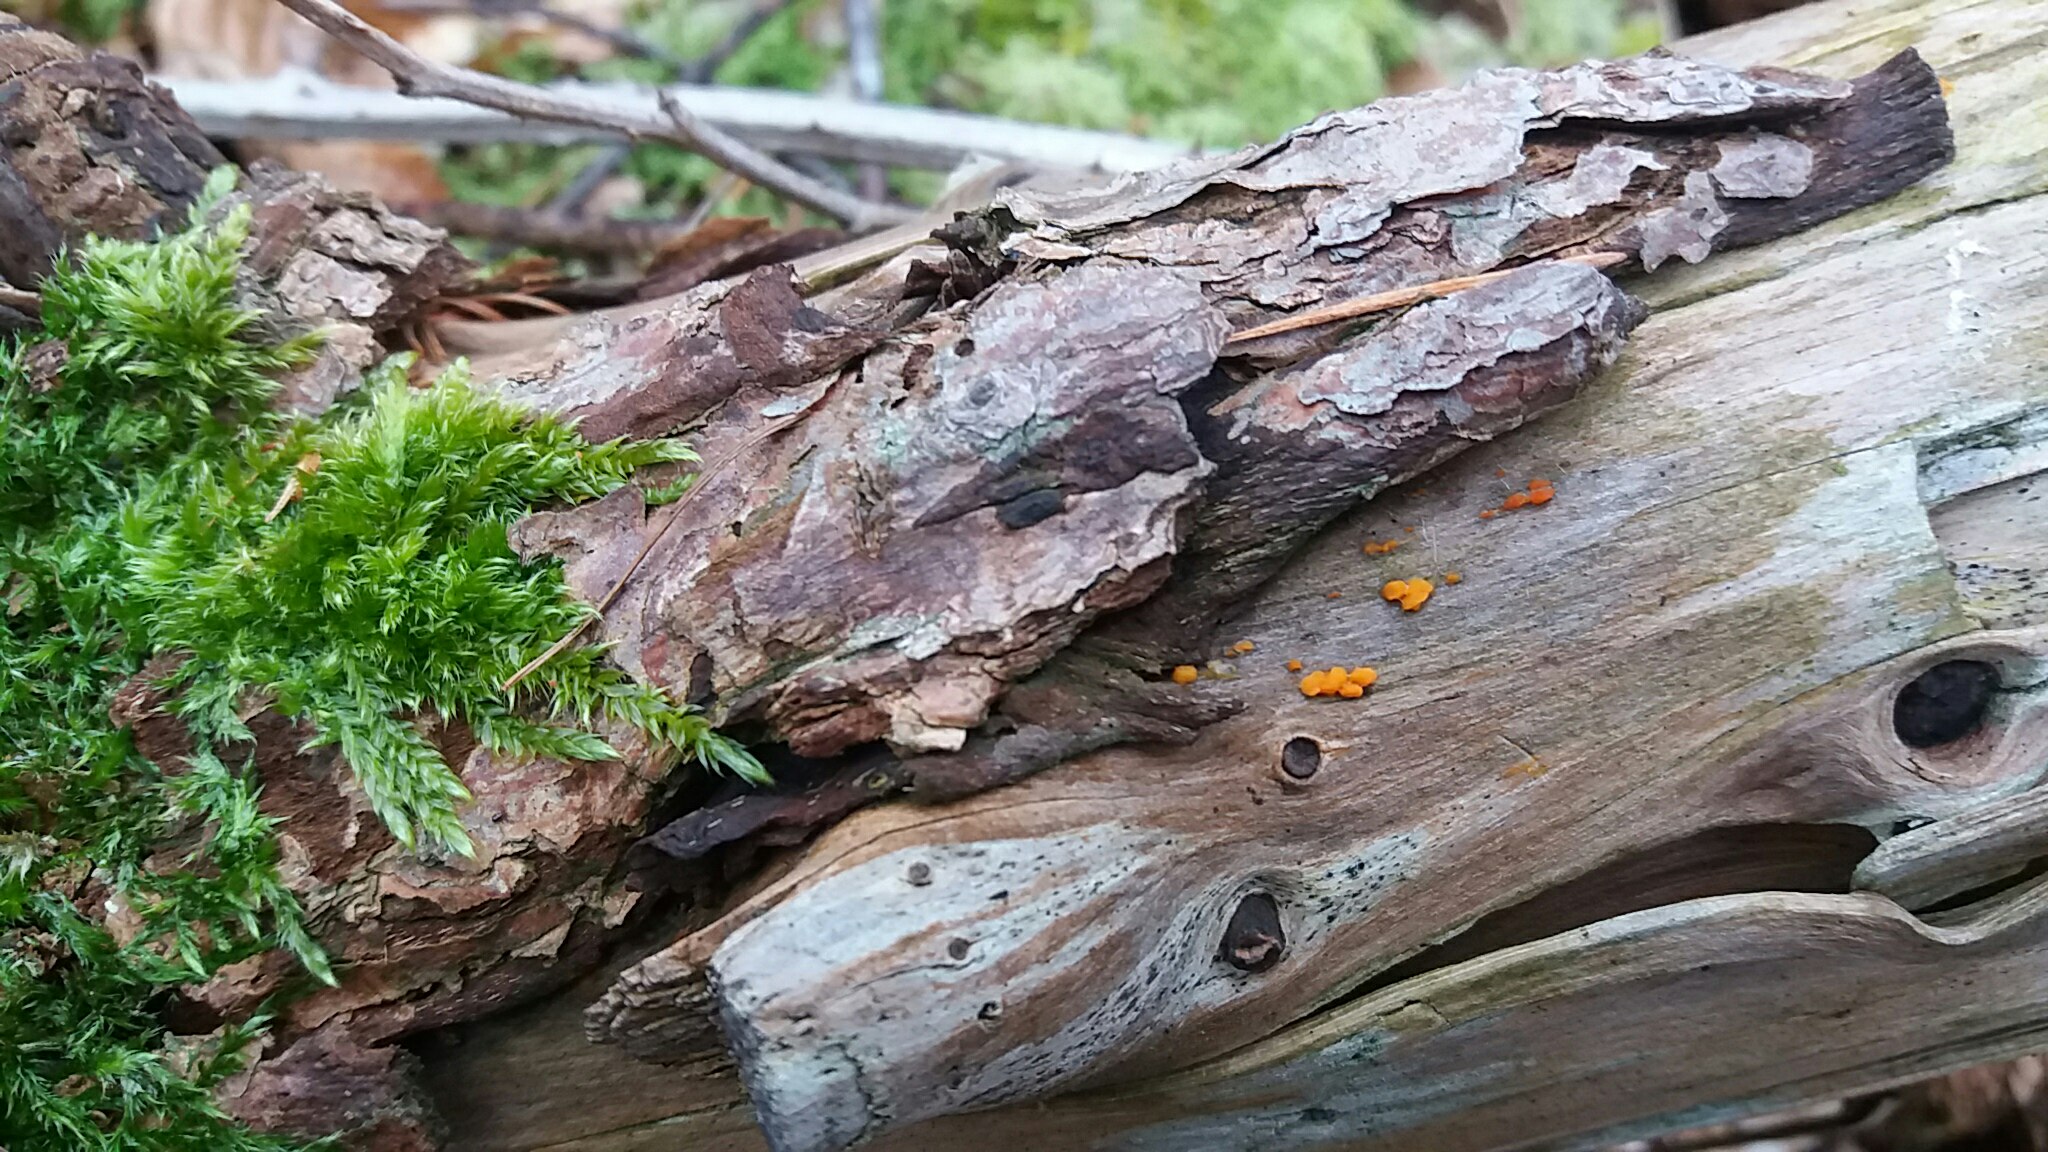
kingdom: Fungi
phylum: Basidiomycota
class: Dacrymycetes
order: Dacrymycetales
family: Dacrymycetaceae
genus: Dacrymyces
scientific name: Dacrymyces stillatus
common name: almindelig tåresvamp
